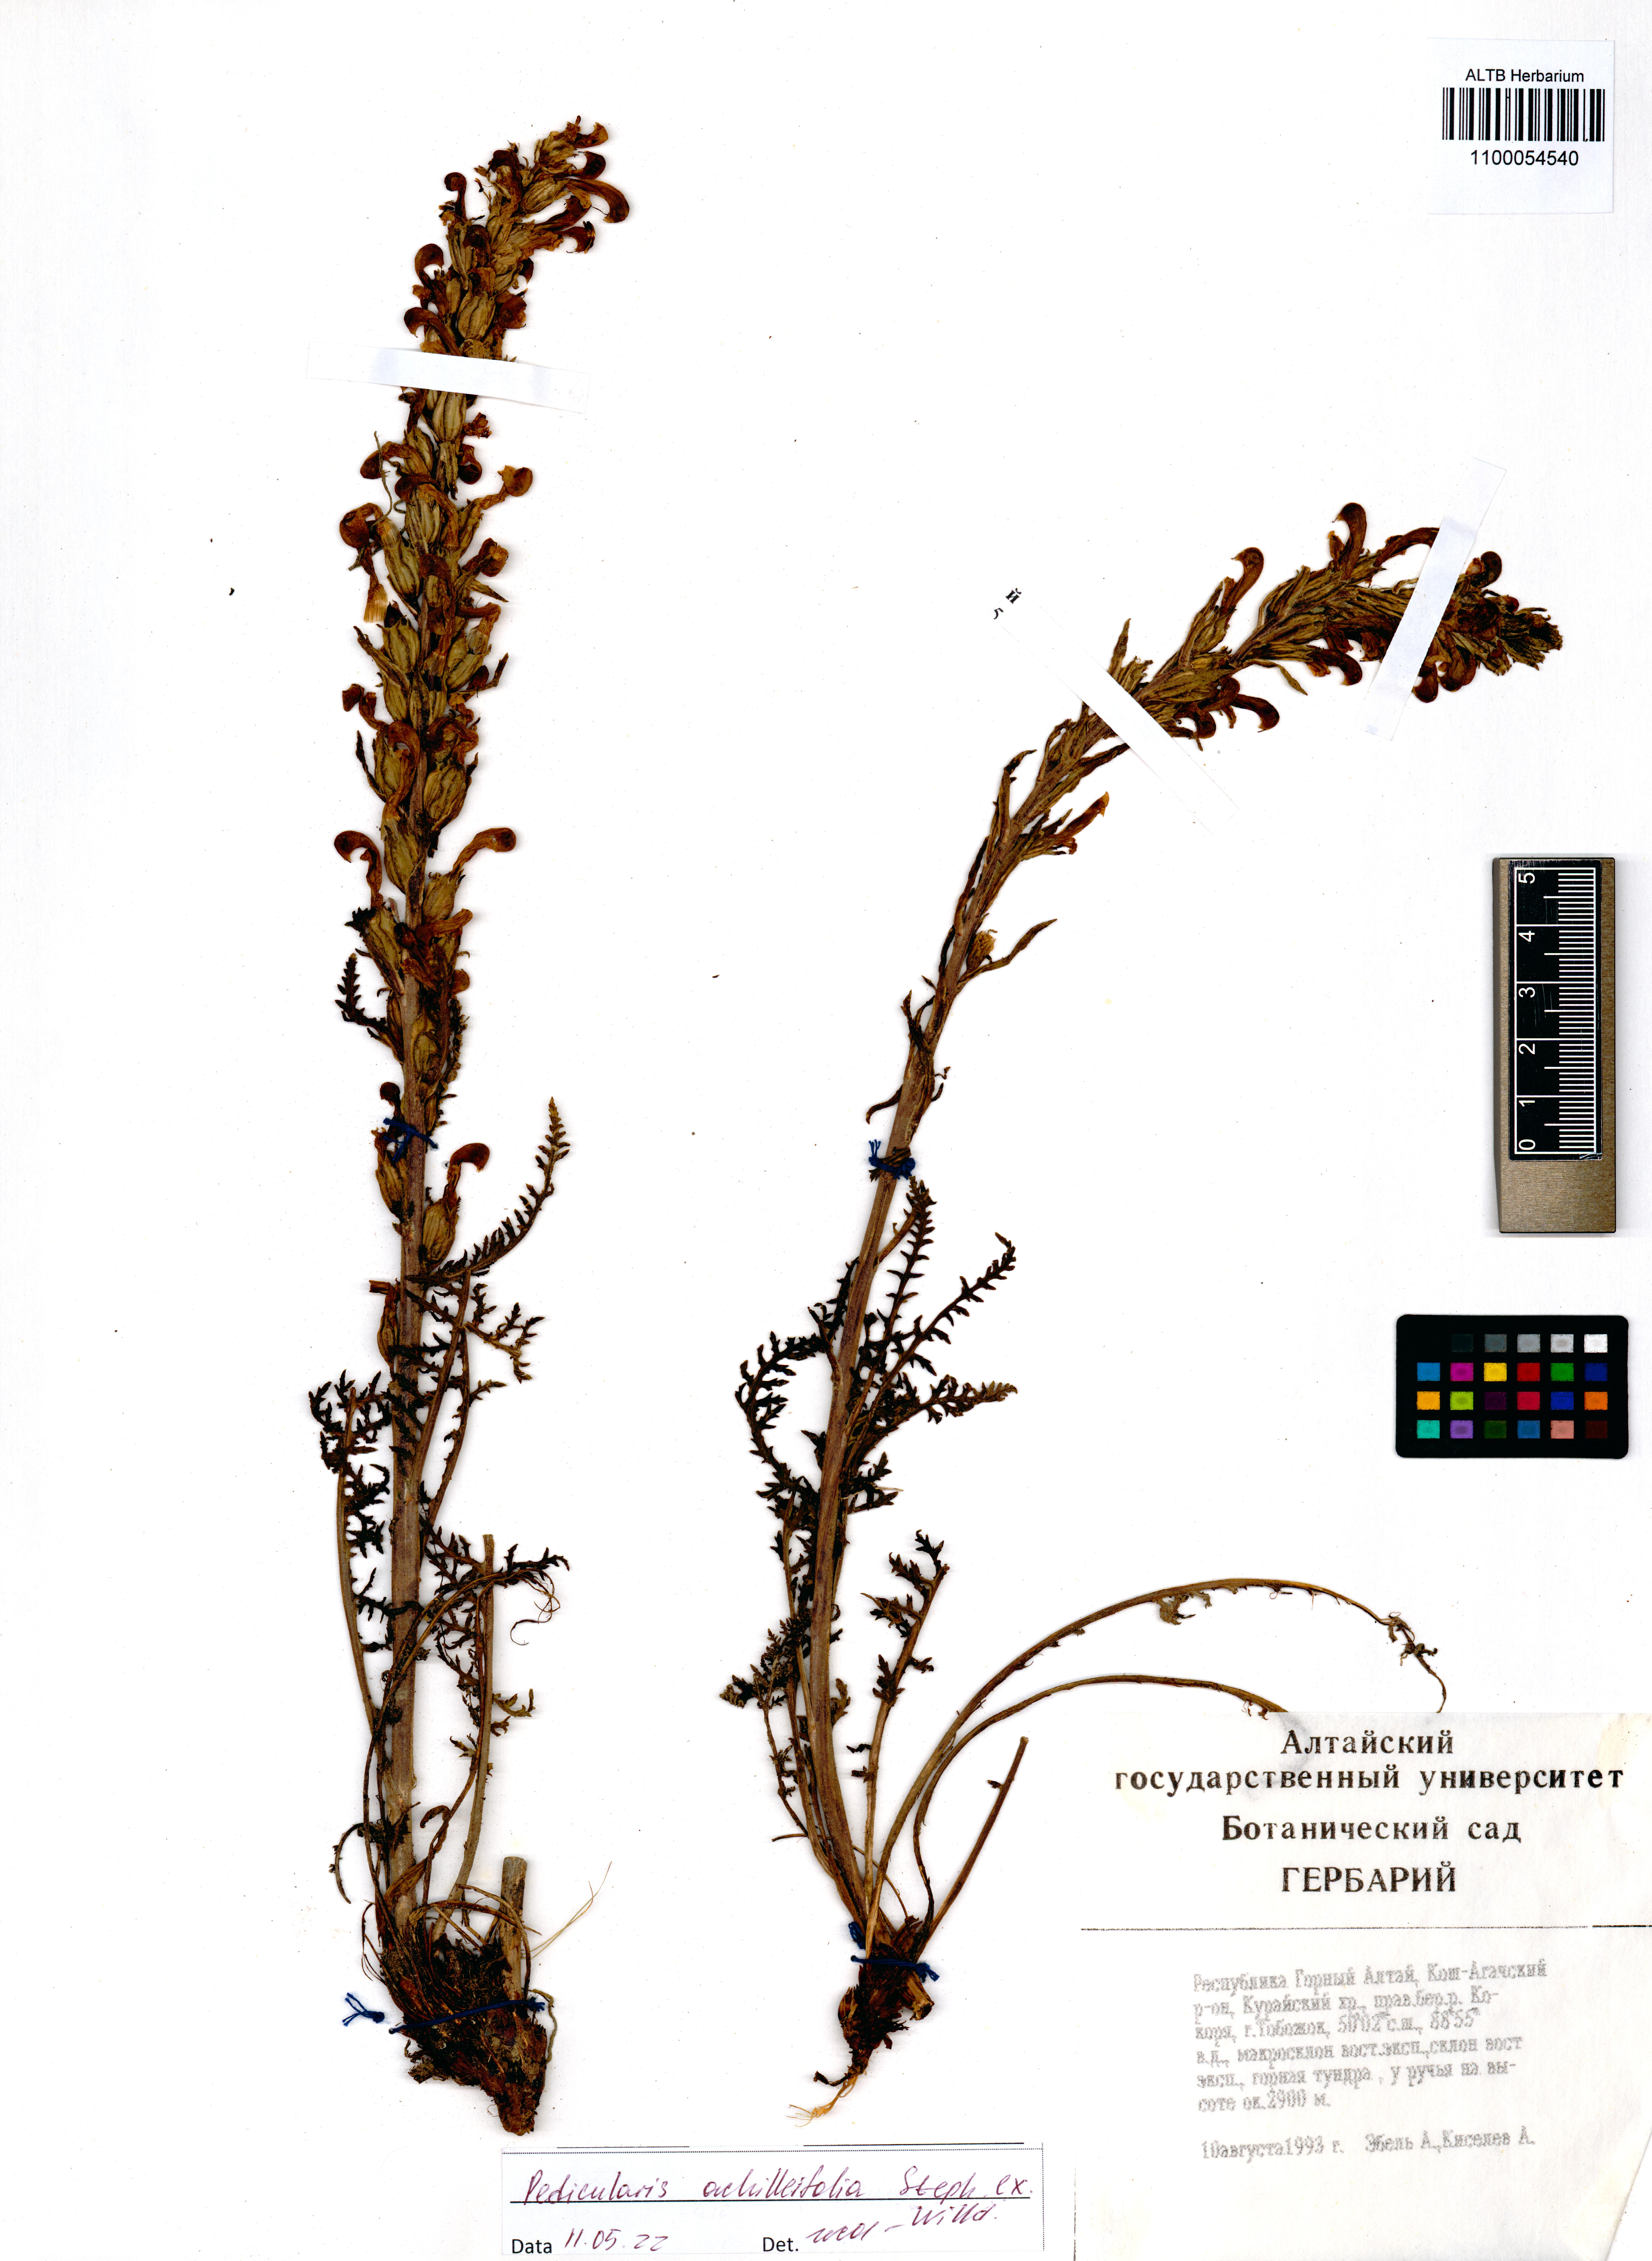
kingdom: Plantae
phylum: Tracheophyta
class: Magnoliopsida
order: Lamiales
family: Orobanchaceae
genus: Pedicularis
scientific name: Pedicularis achilleifolia
